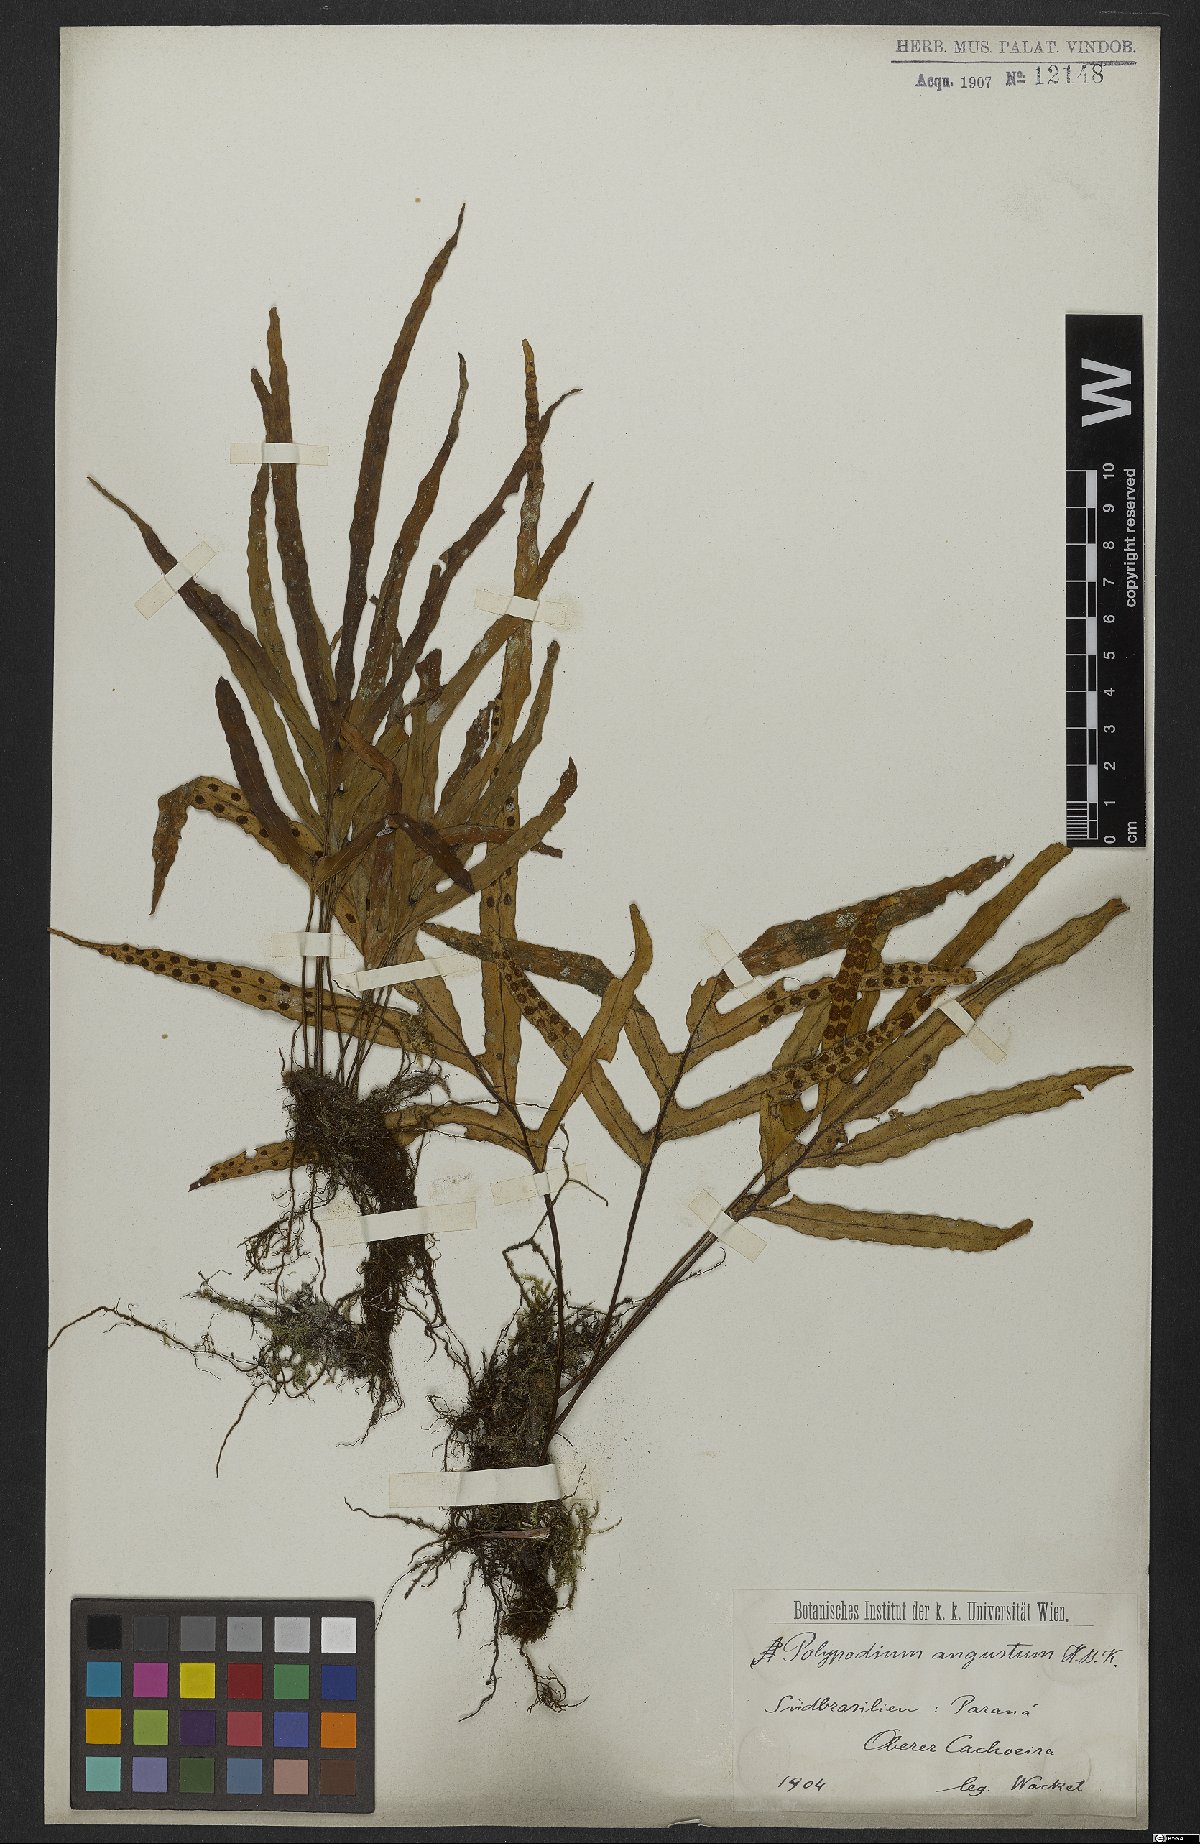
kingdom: Plantae
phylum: Tracheophyta
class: Polypodiopsida
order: Polypodiales
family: Polypodiaceae
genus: Pleopeltis
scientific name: Pleopeltis angusta
